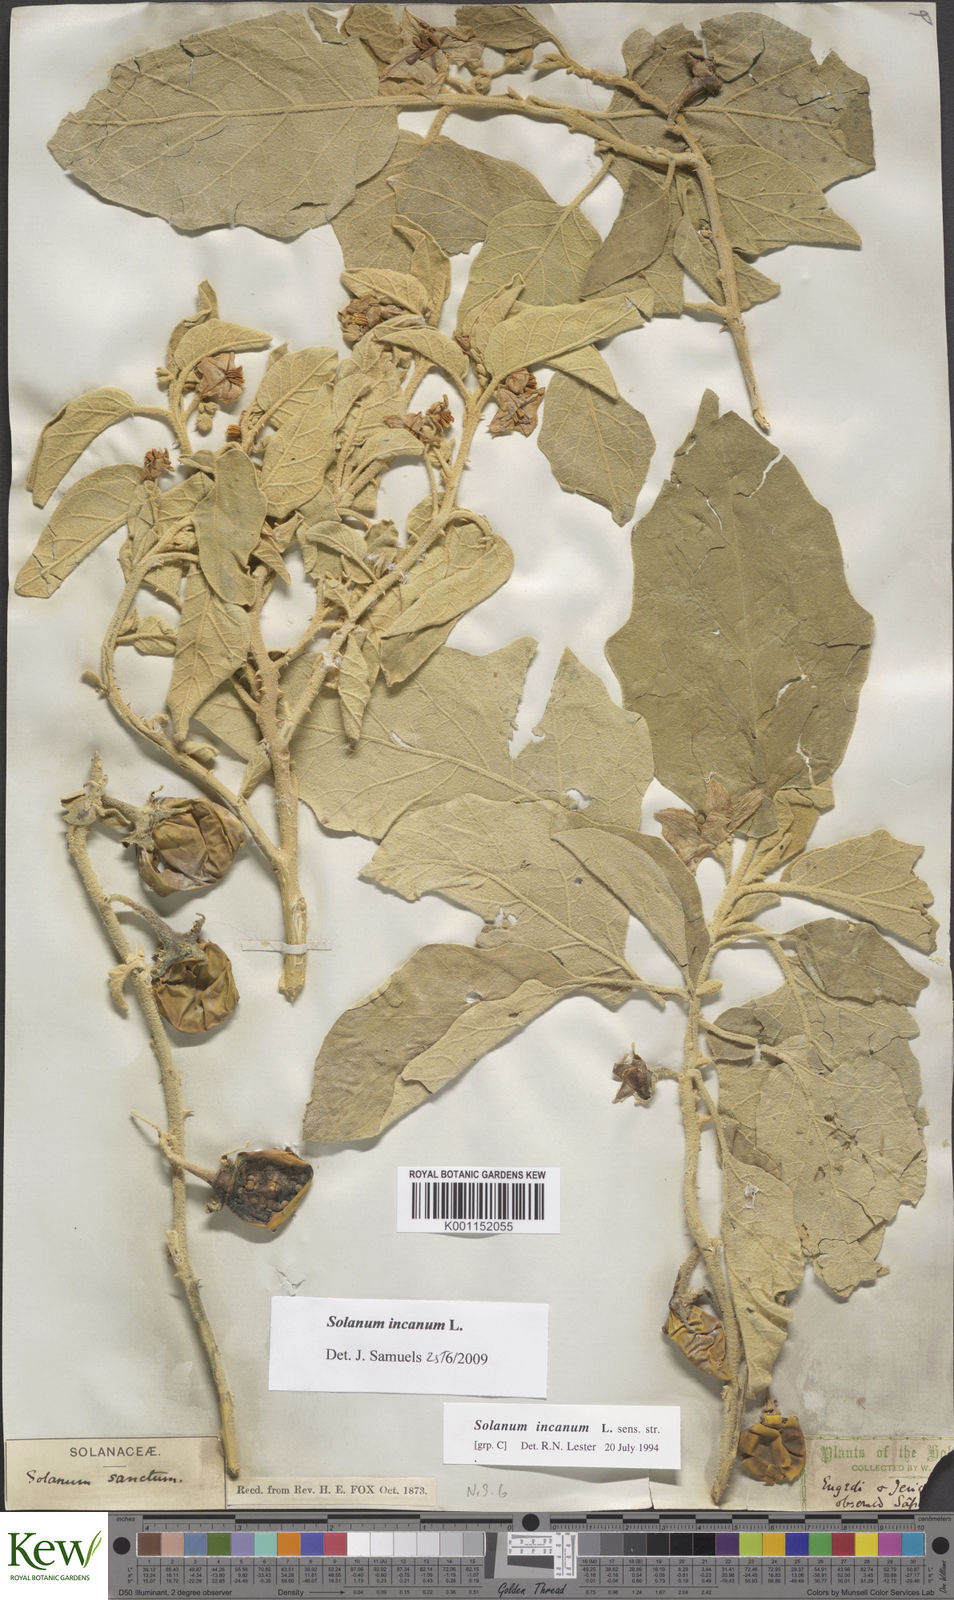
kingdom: Plantae
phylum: Tracheophyta
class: Magnoliopsida
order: Solanales
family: Solanaceae
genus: Solanum
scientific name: Solanum incanum
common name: Bitter apple
